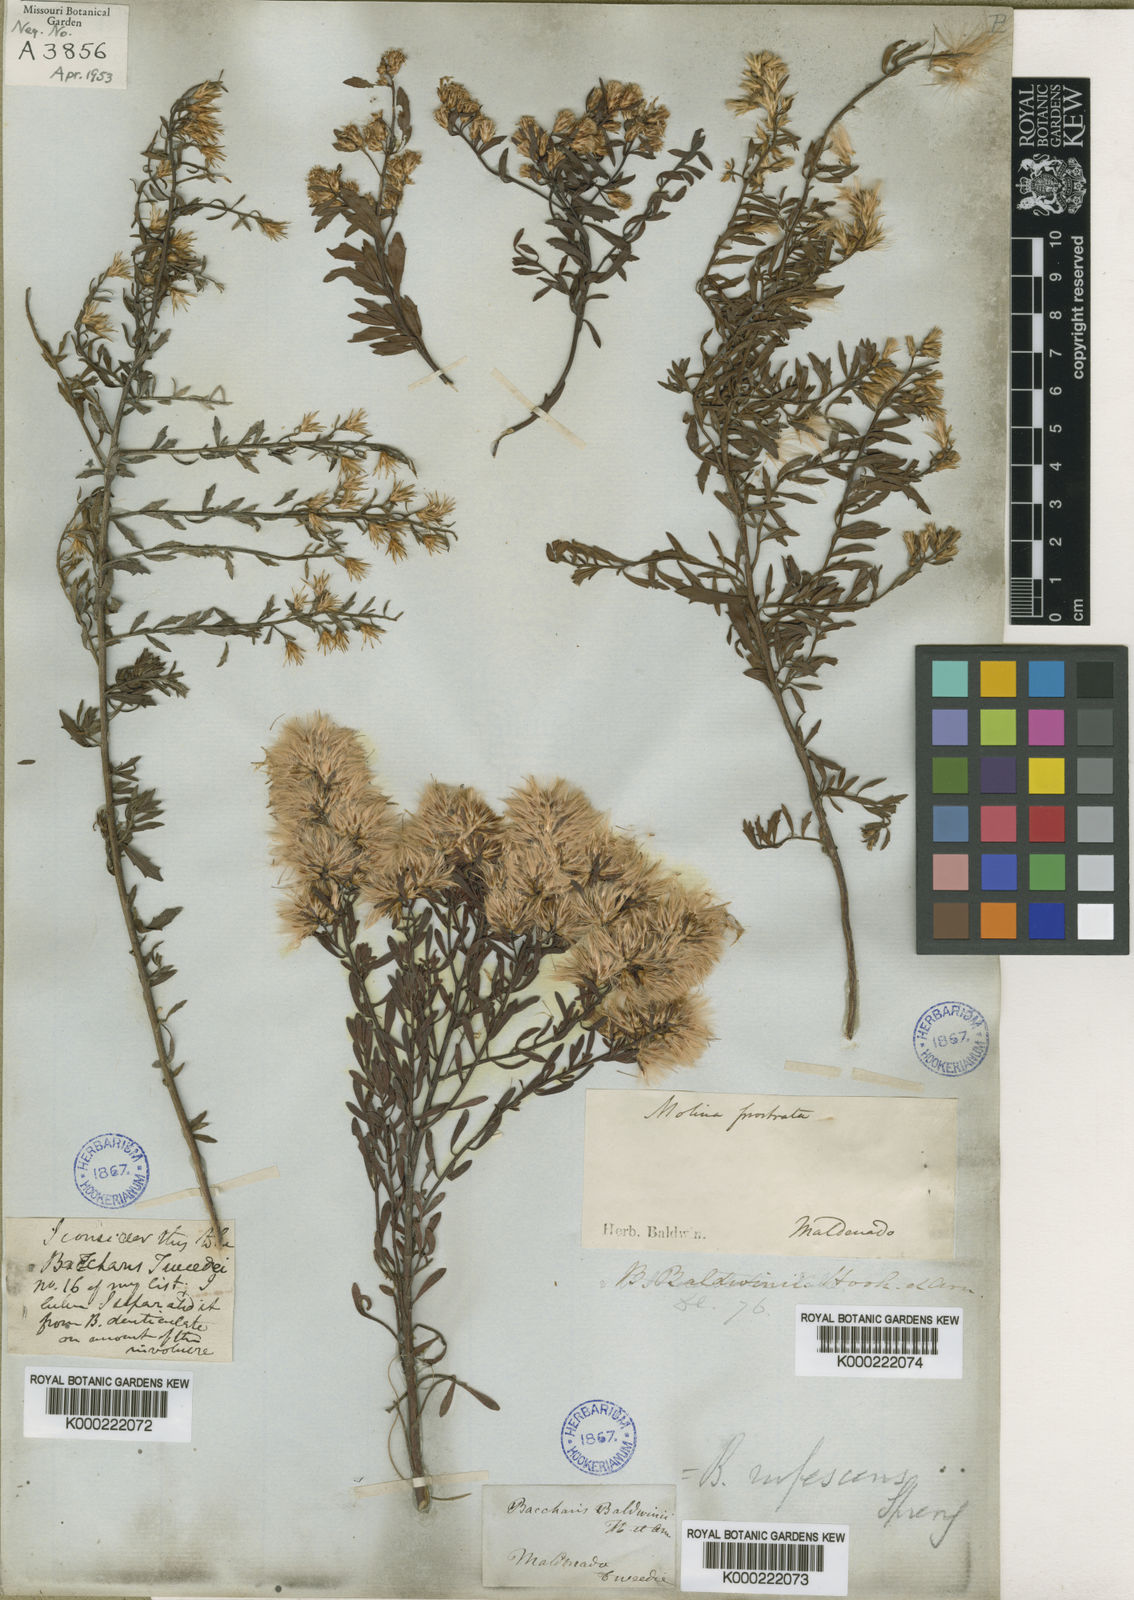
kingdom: Plantae
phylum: Tracheophyta
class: Magnoliopsida
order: Asterales
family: Asteraceae
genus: Baccharis
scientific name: Baccharis rufescens
